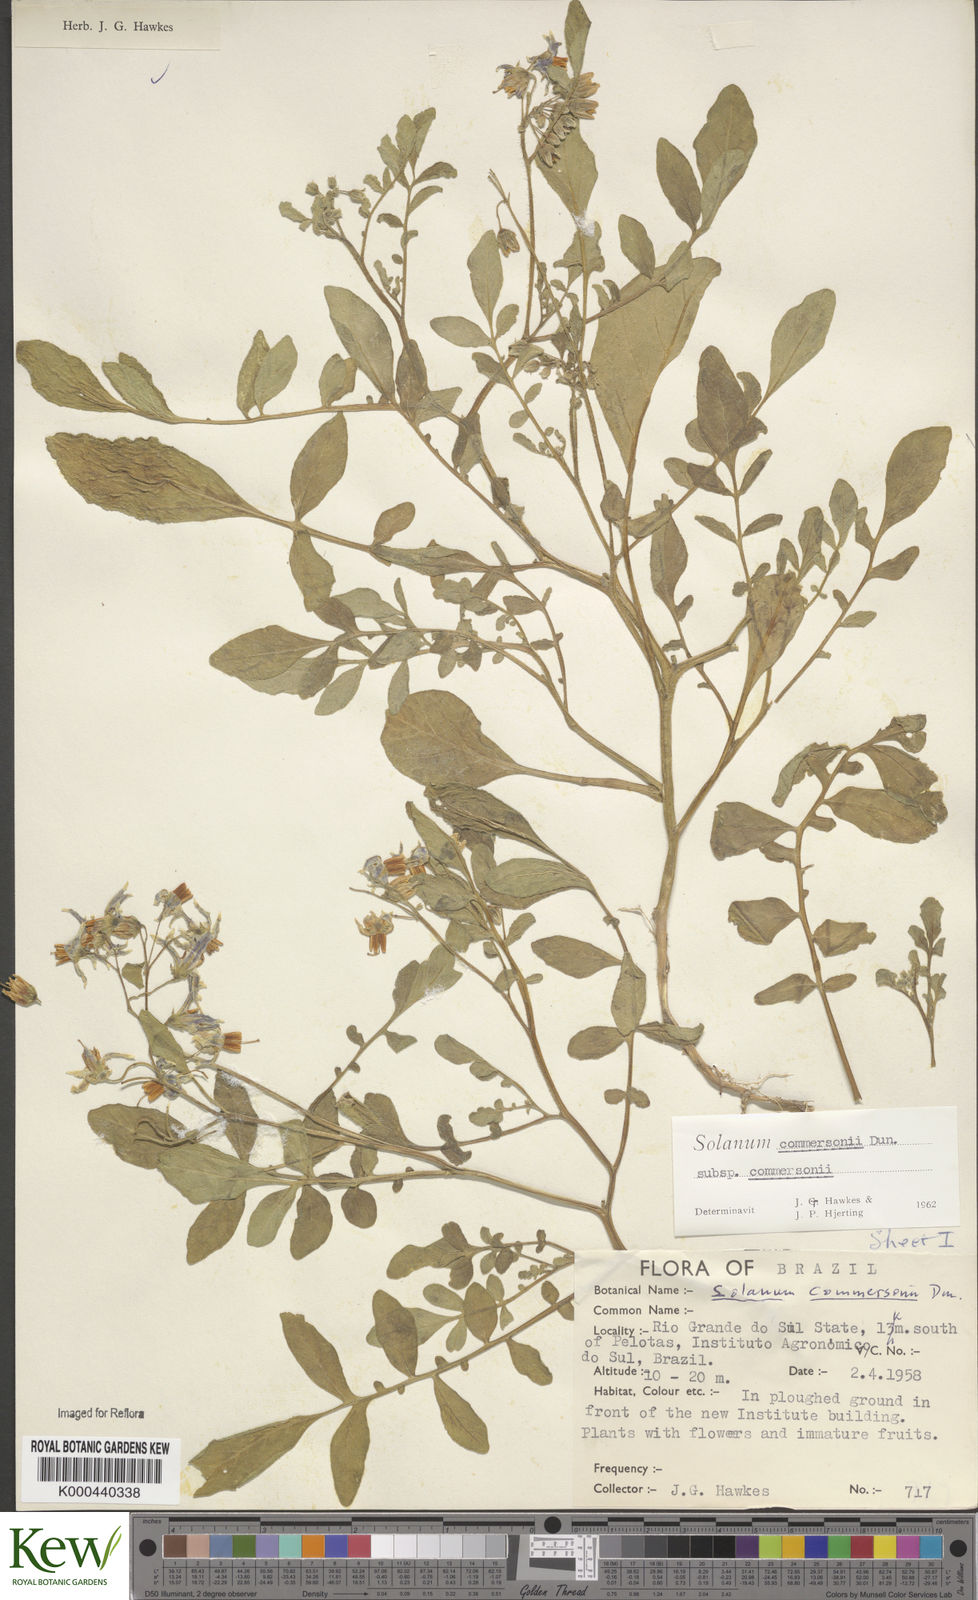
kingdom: Plantae
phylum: Tracheophyta
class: Magnoliopsida
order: Solanales
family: Solanaceae
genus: Solanum
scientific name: Solanum commersonii
